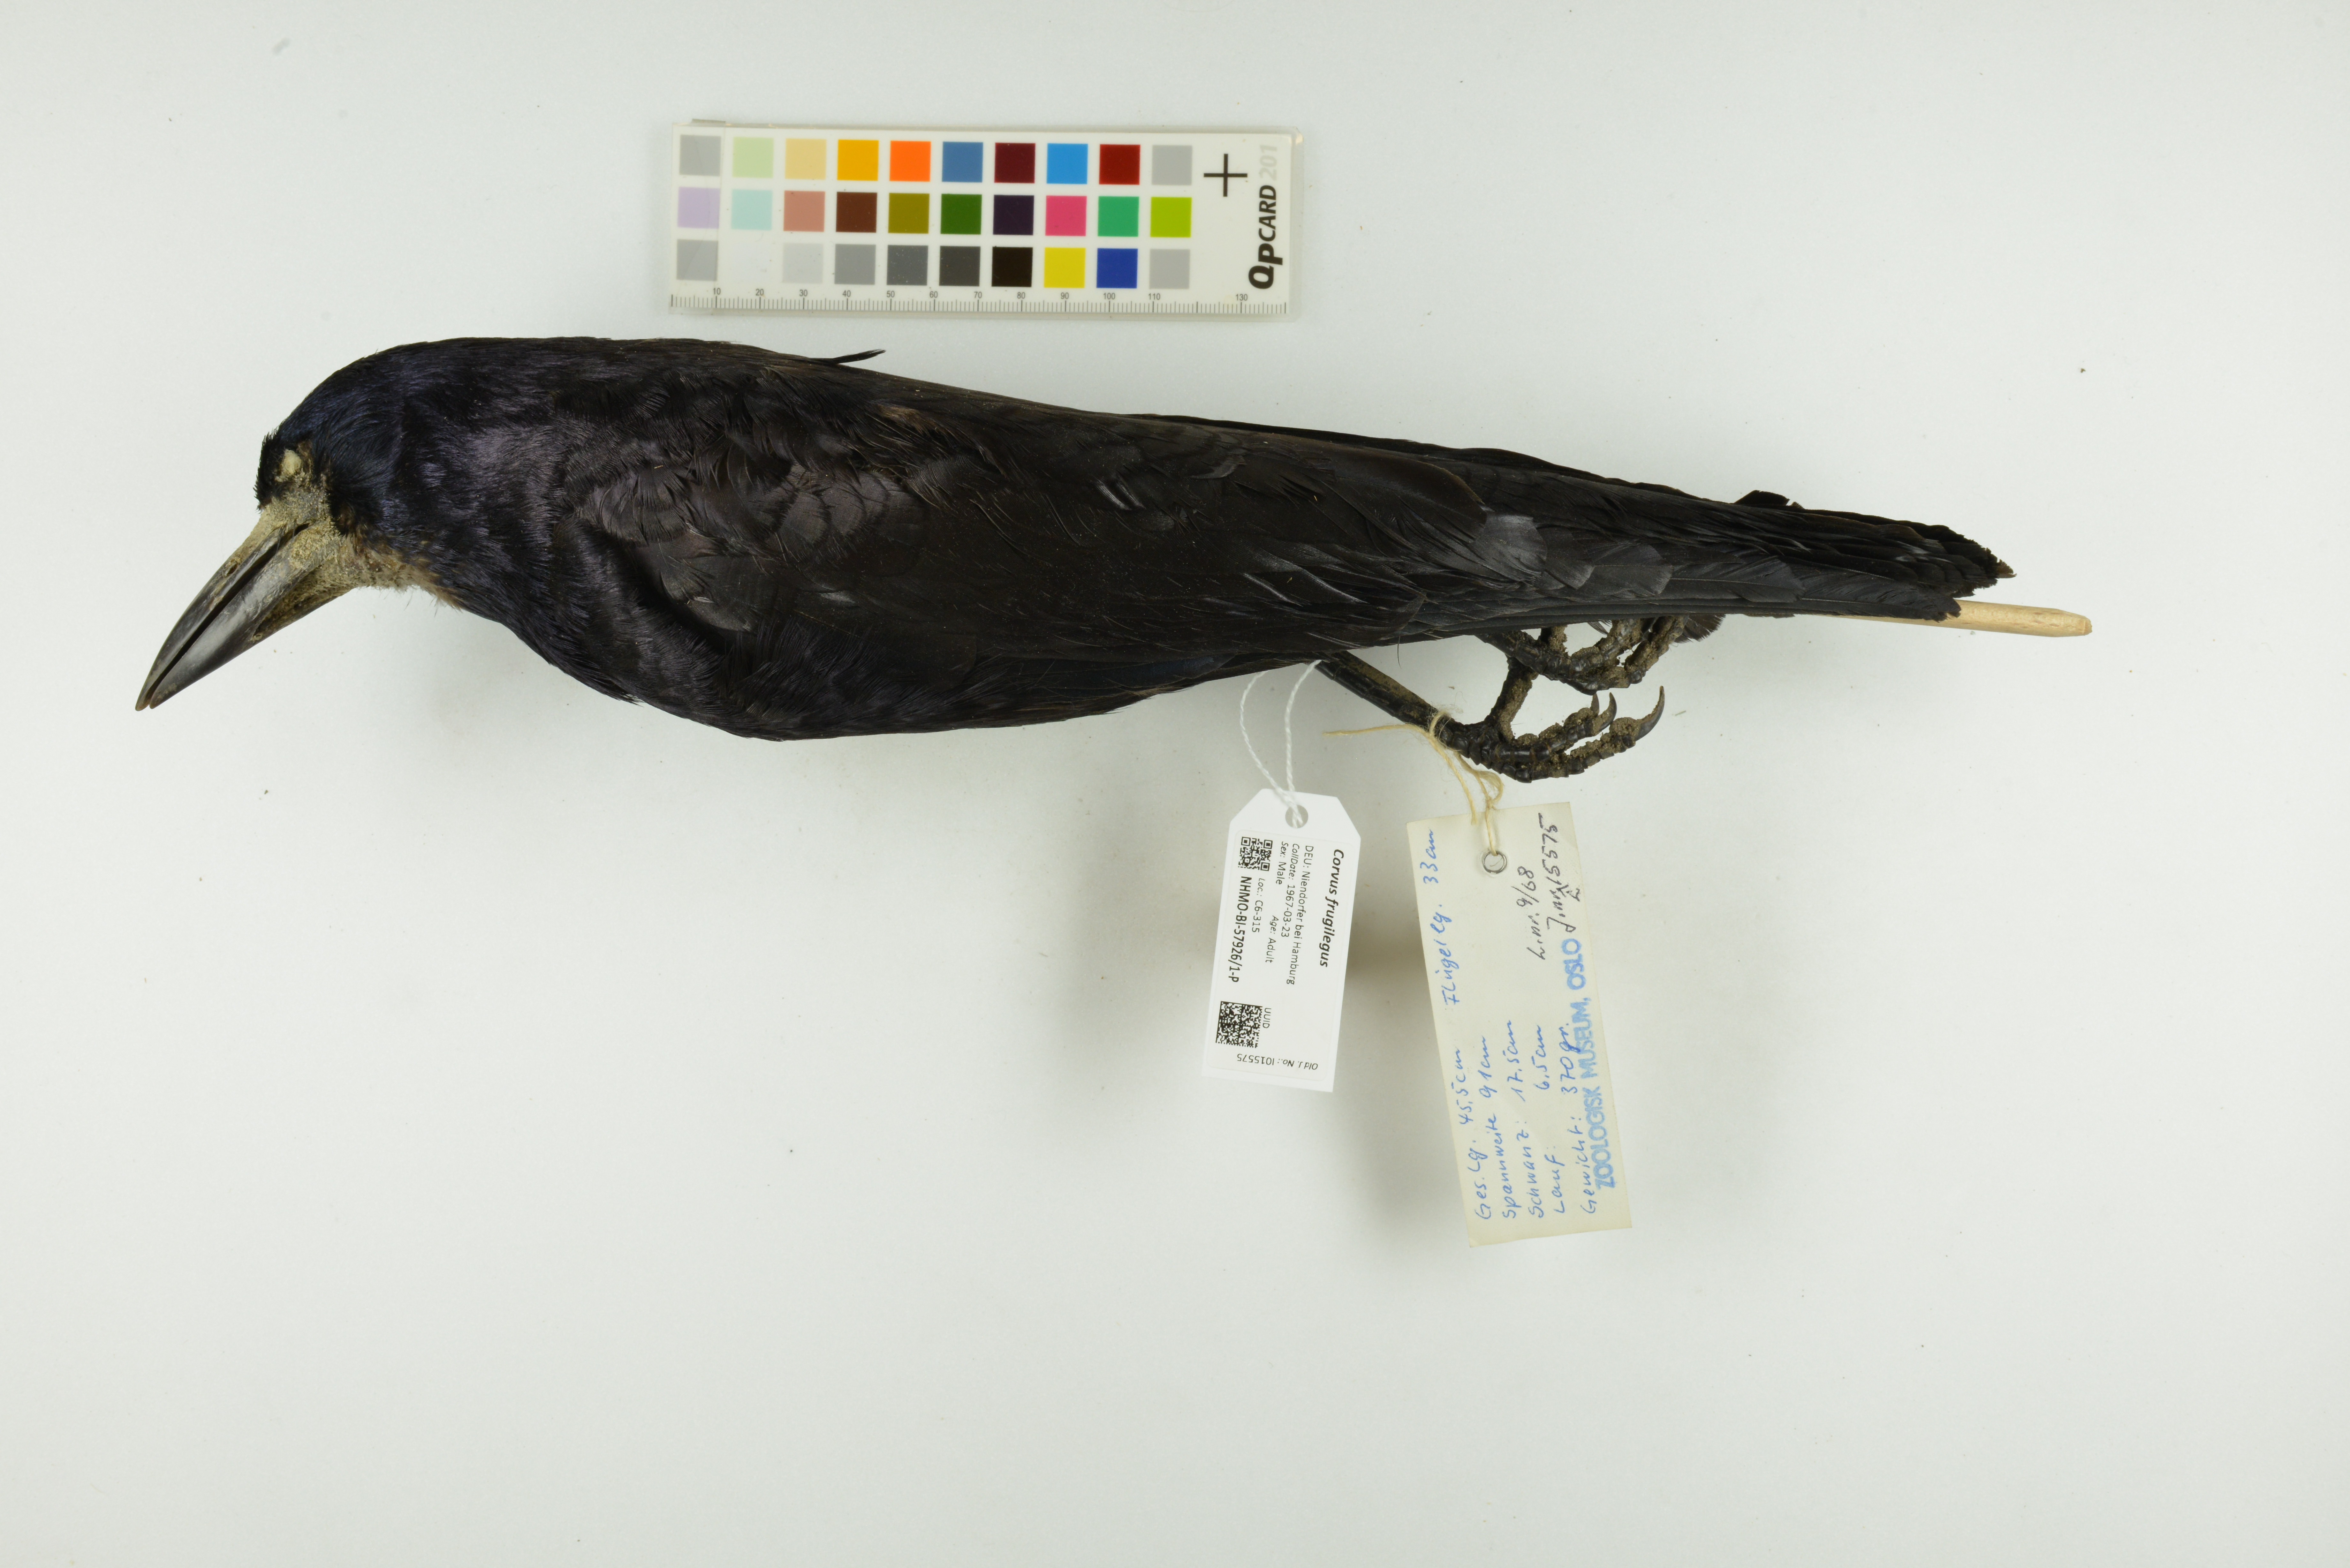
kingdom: Animalia
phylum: Chordata
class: Aves
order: Passeriformes
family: Corvidae
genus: Corvus
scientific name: Corvus frugilegus
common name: Rook
